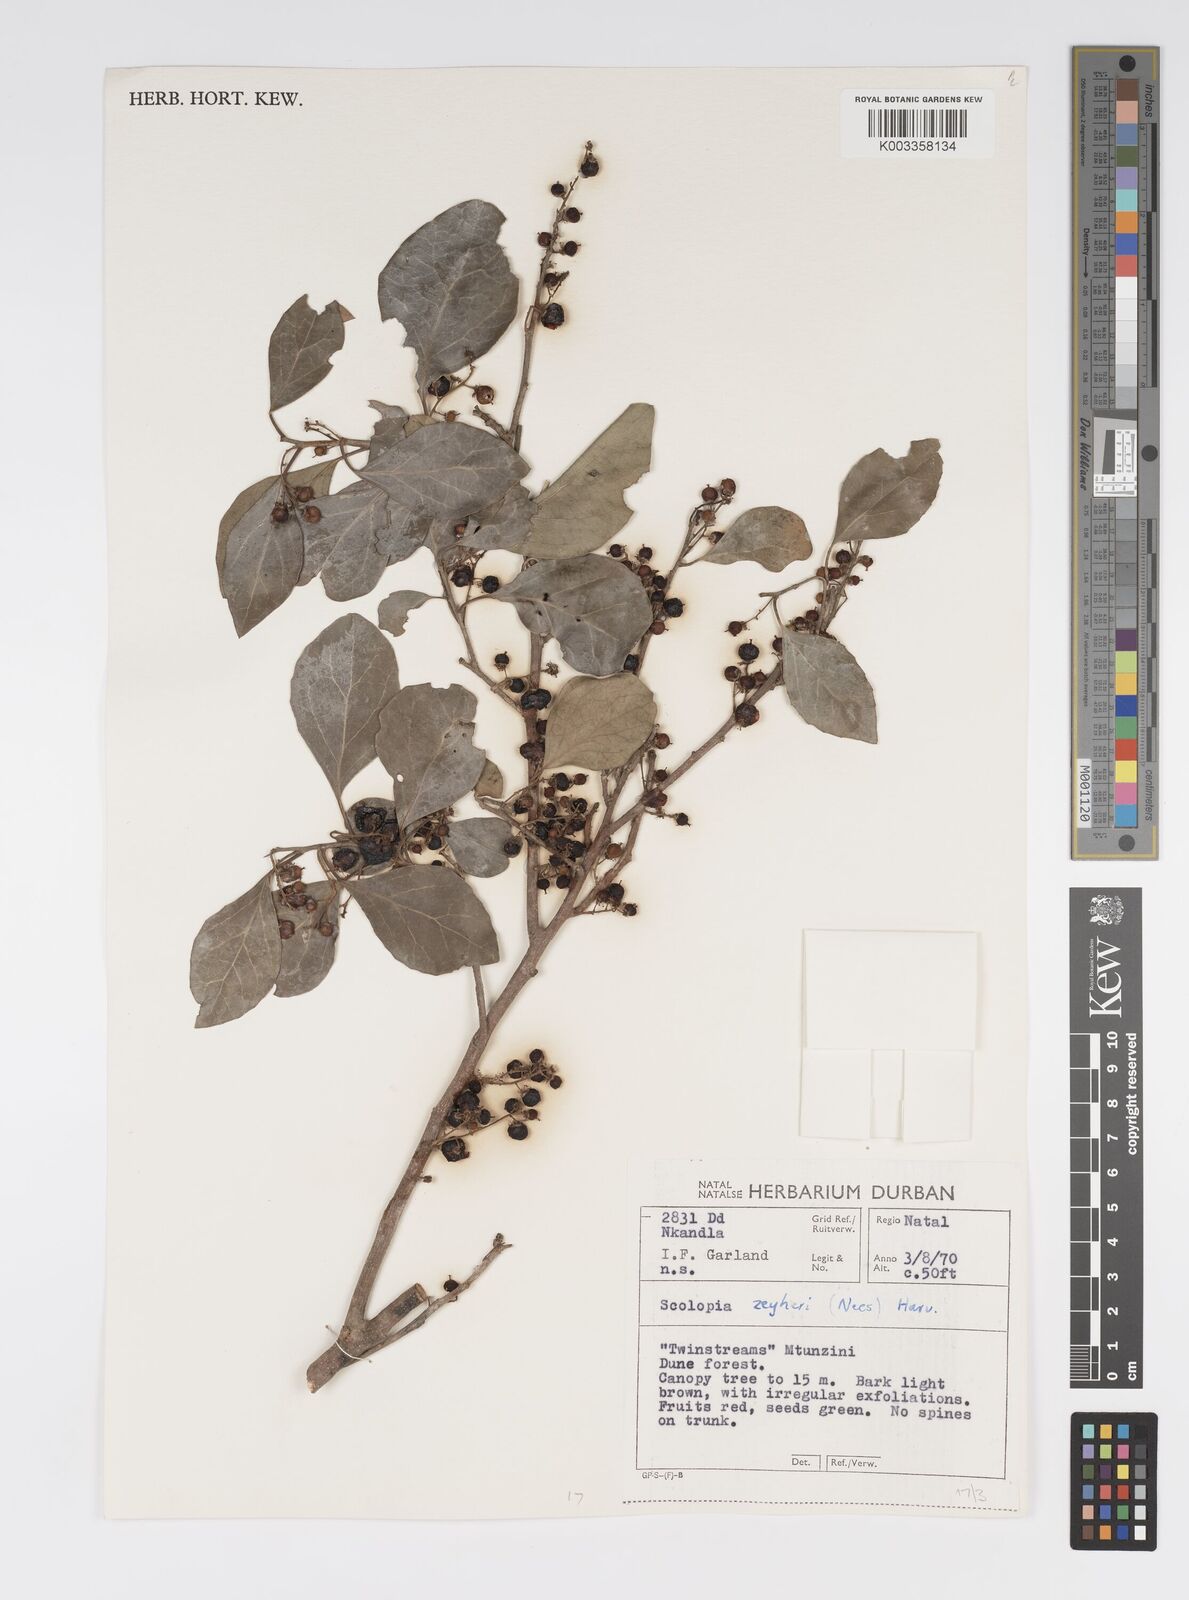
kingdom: Plantae
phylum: Tracheophyta
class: Magnoliopsida
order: Malpighiales
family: Salicaceae
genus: Scolopia
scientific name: Scolopia zeyheri
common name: Thorn pear
